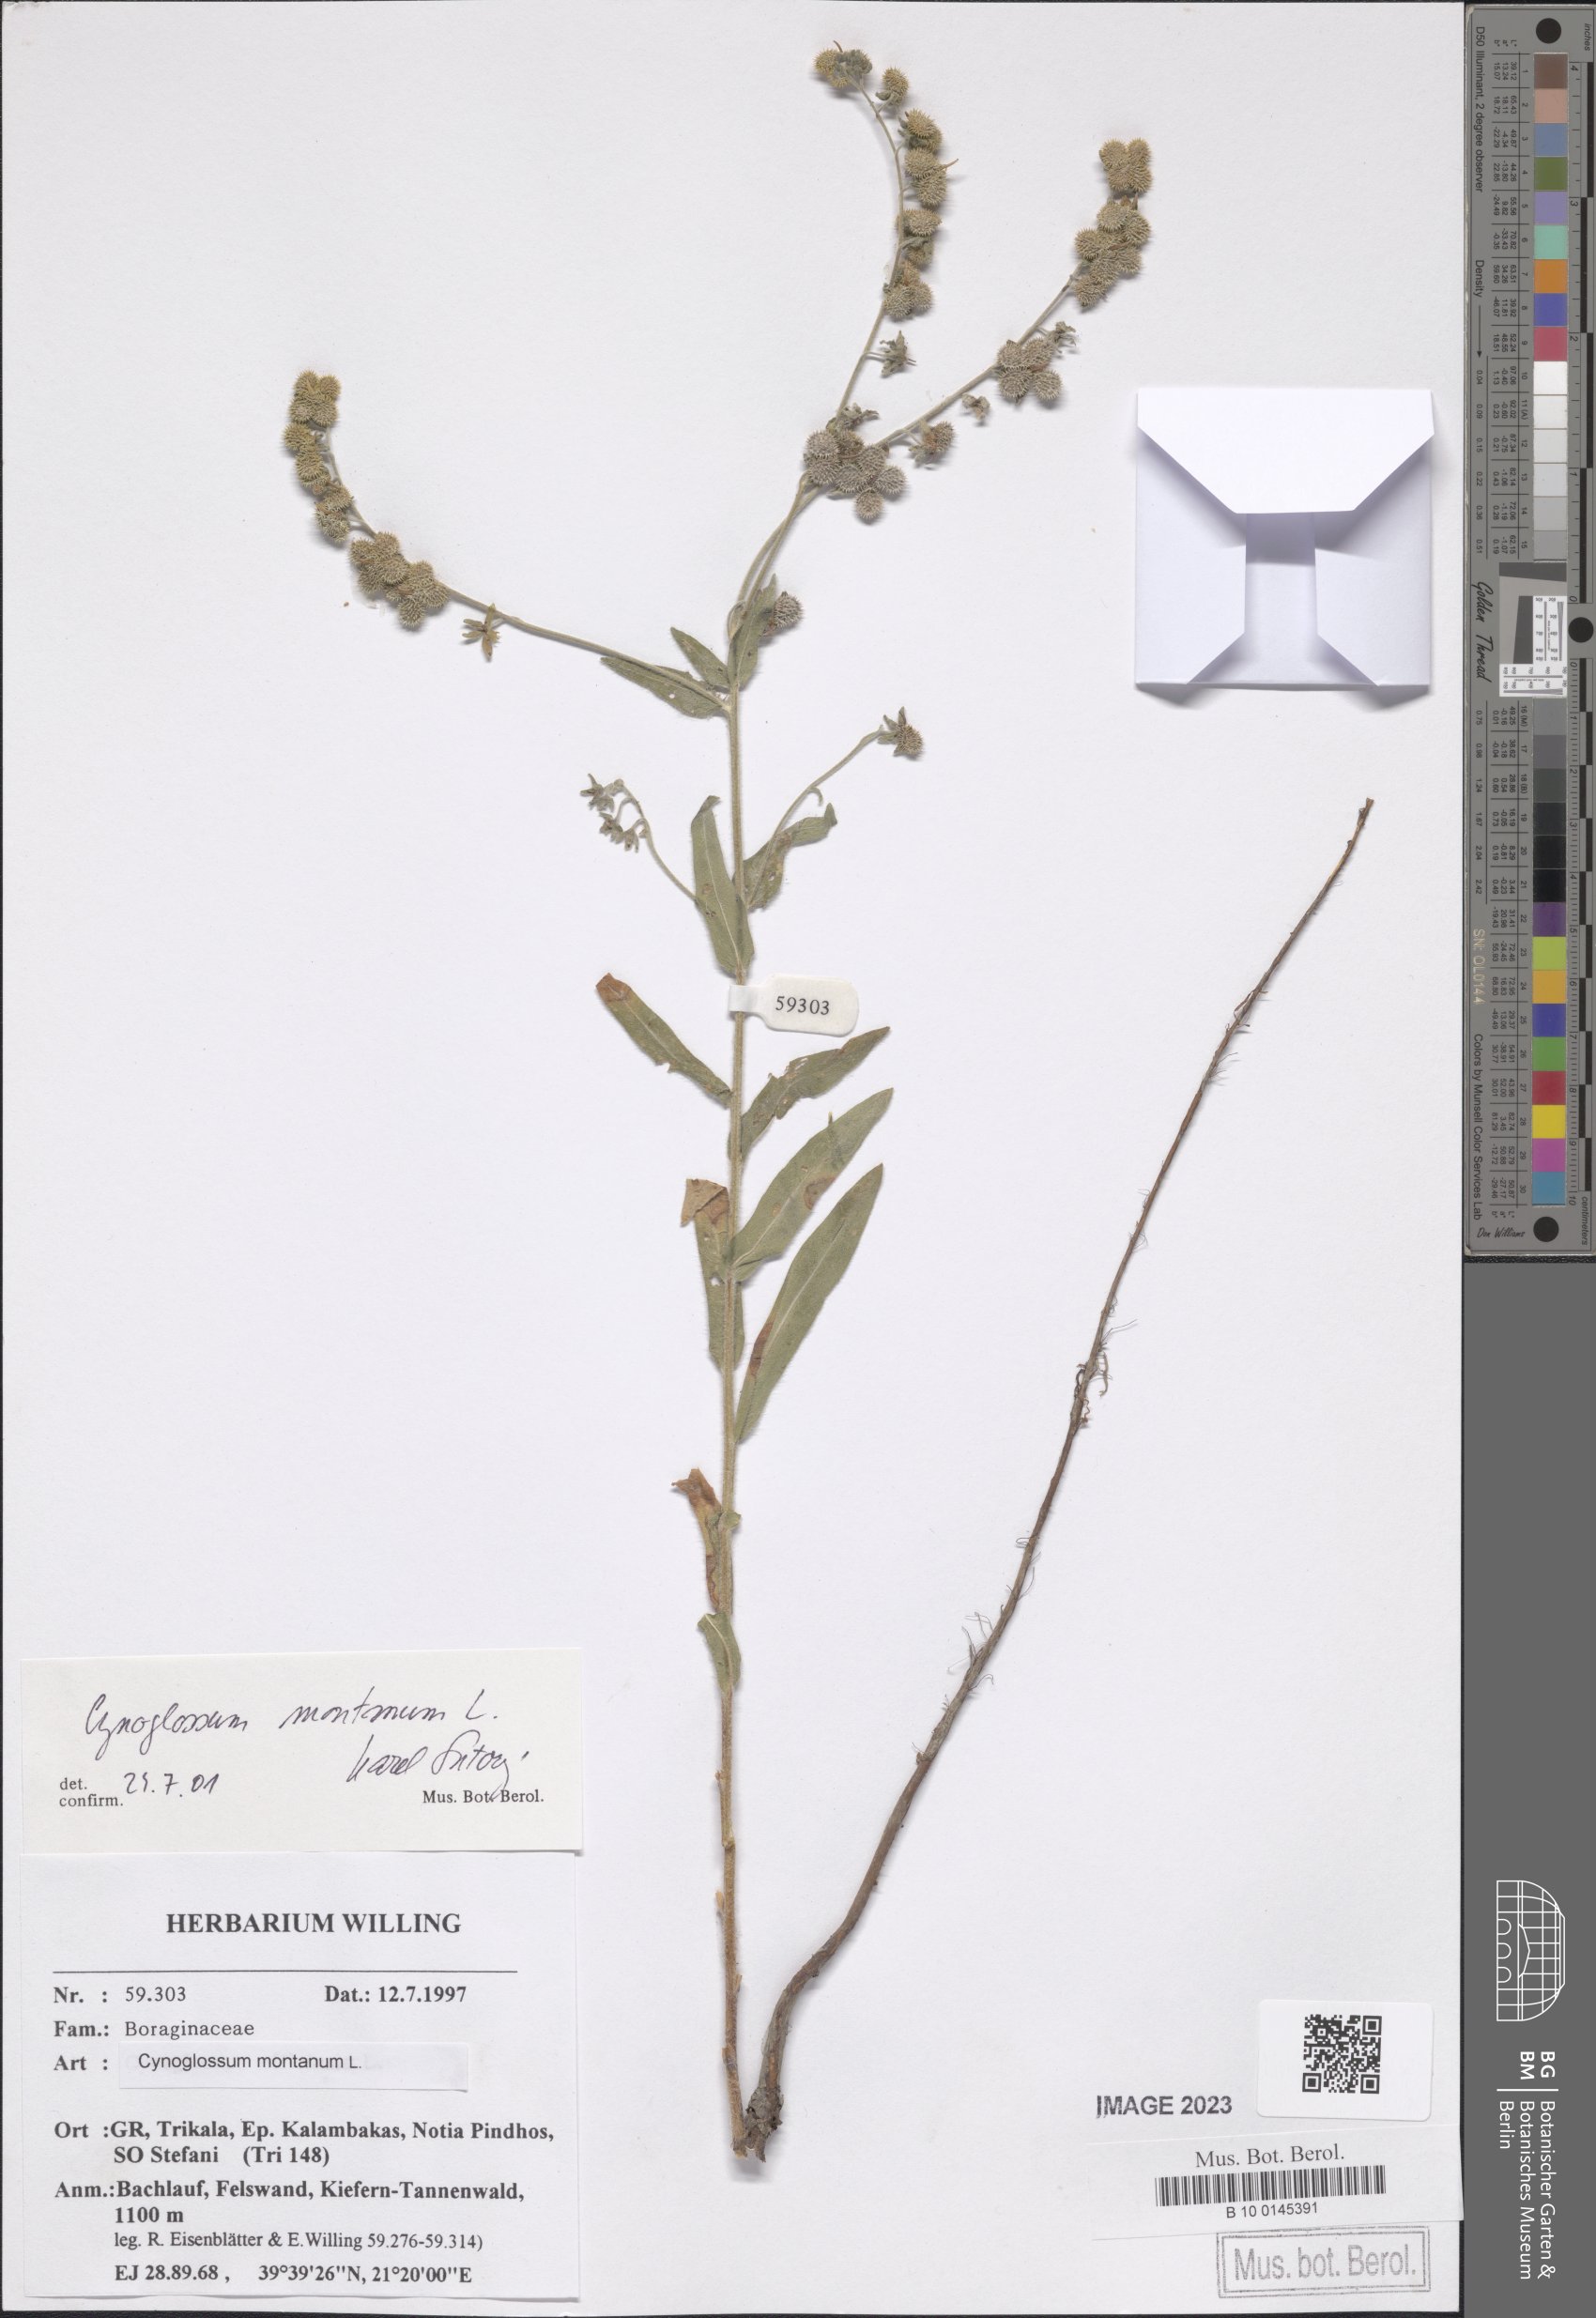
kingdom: Plantae
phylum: Tracheophyta
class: Magnoliopsida
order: Boraginales
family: Boraginaceae
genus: Cynoglossum
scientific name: Cynoglossum montanum
